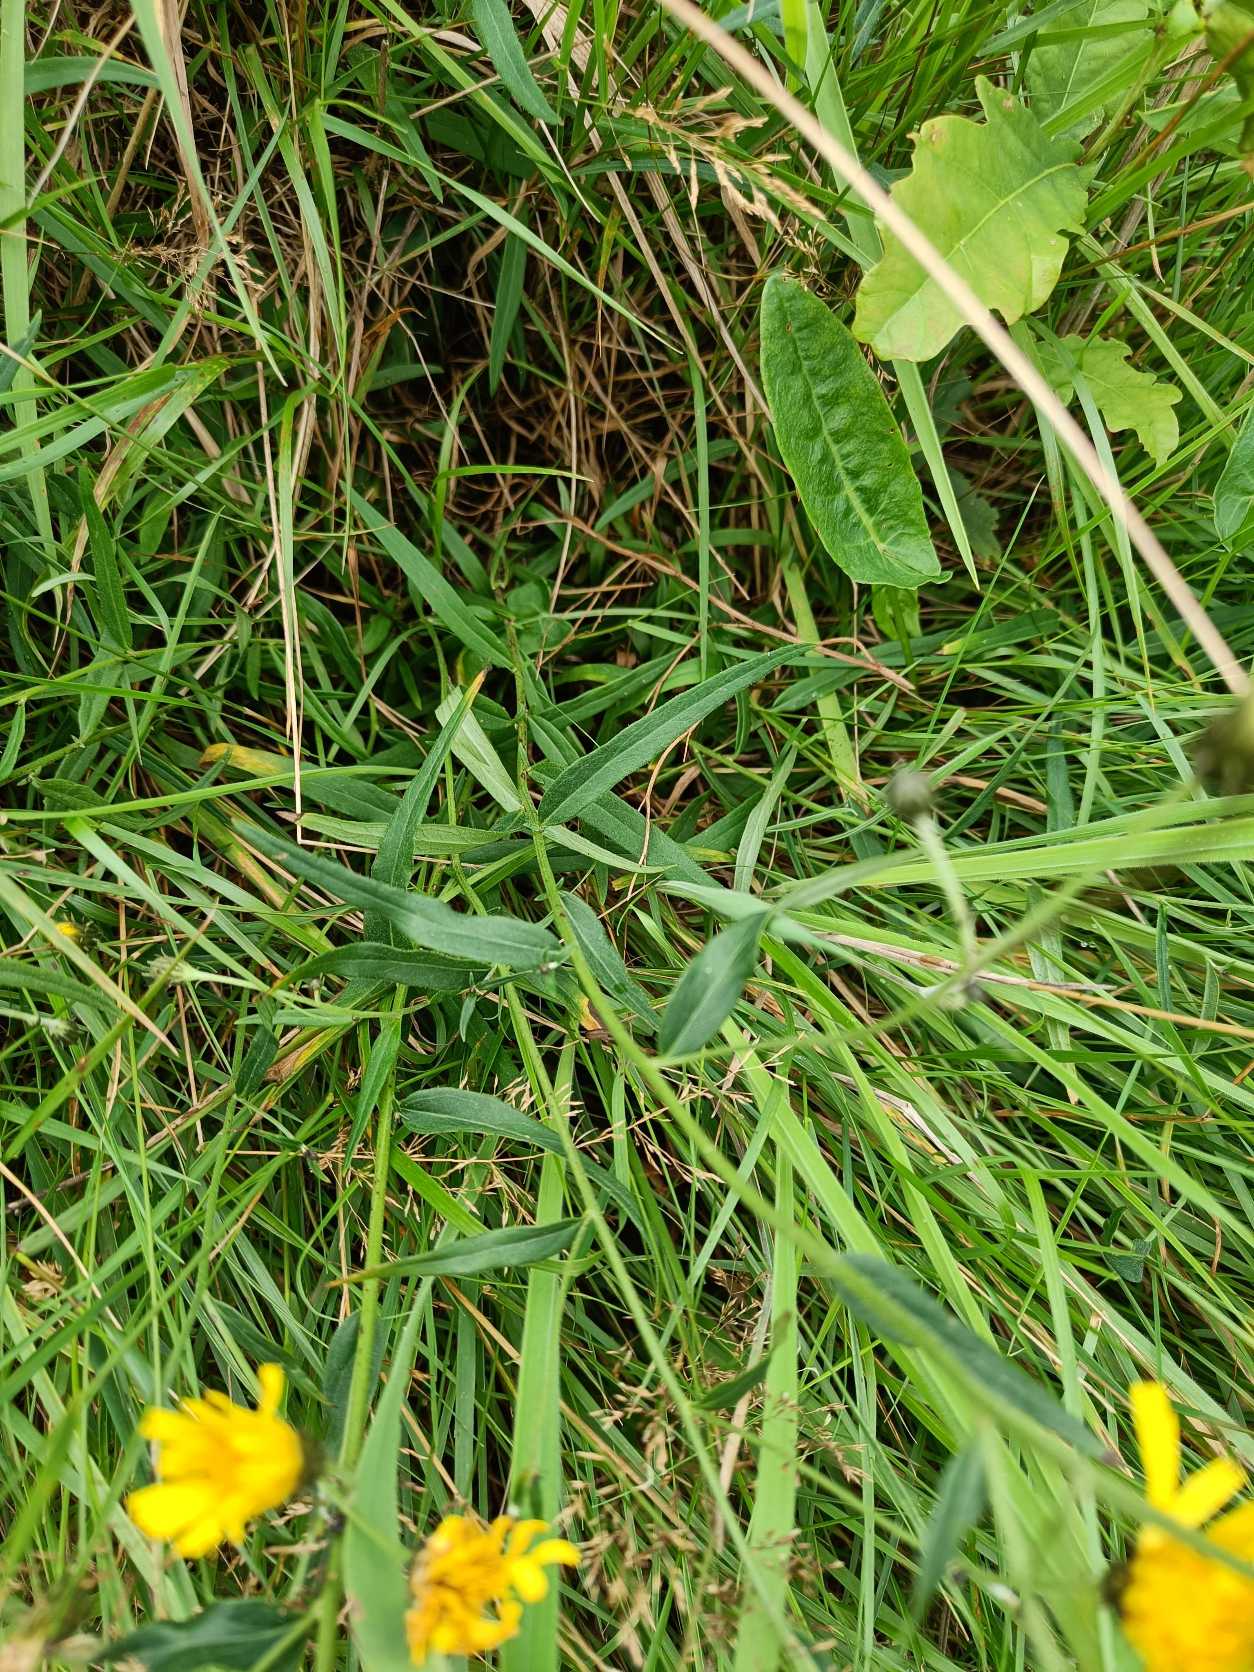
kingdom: Plantae
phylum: Tracheophyta
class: Magnoliopsida
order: Asterales
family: Asteraceae
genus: Hieracium
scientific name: Hieracium umbellatum
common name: Smalbladet høgeurt
